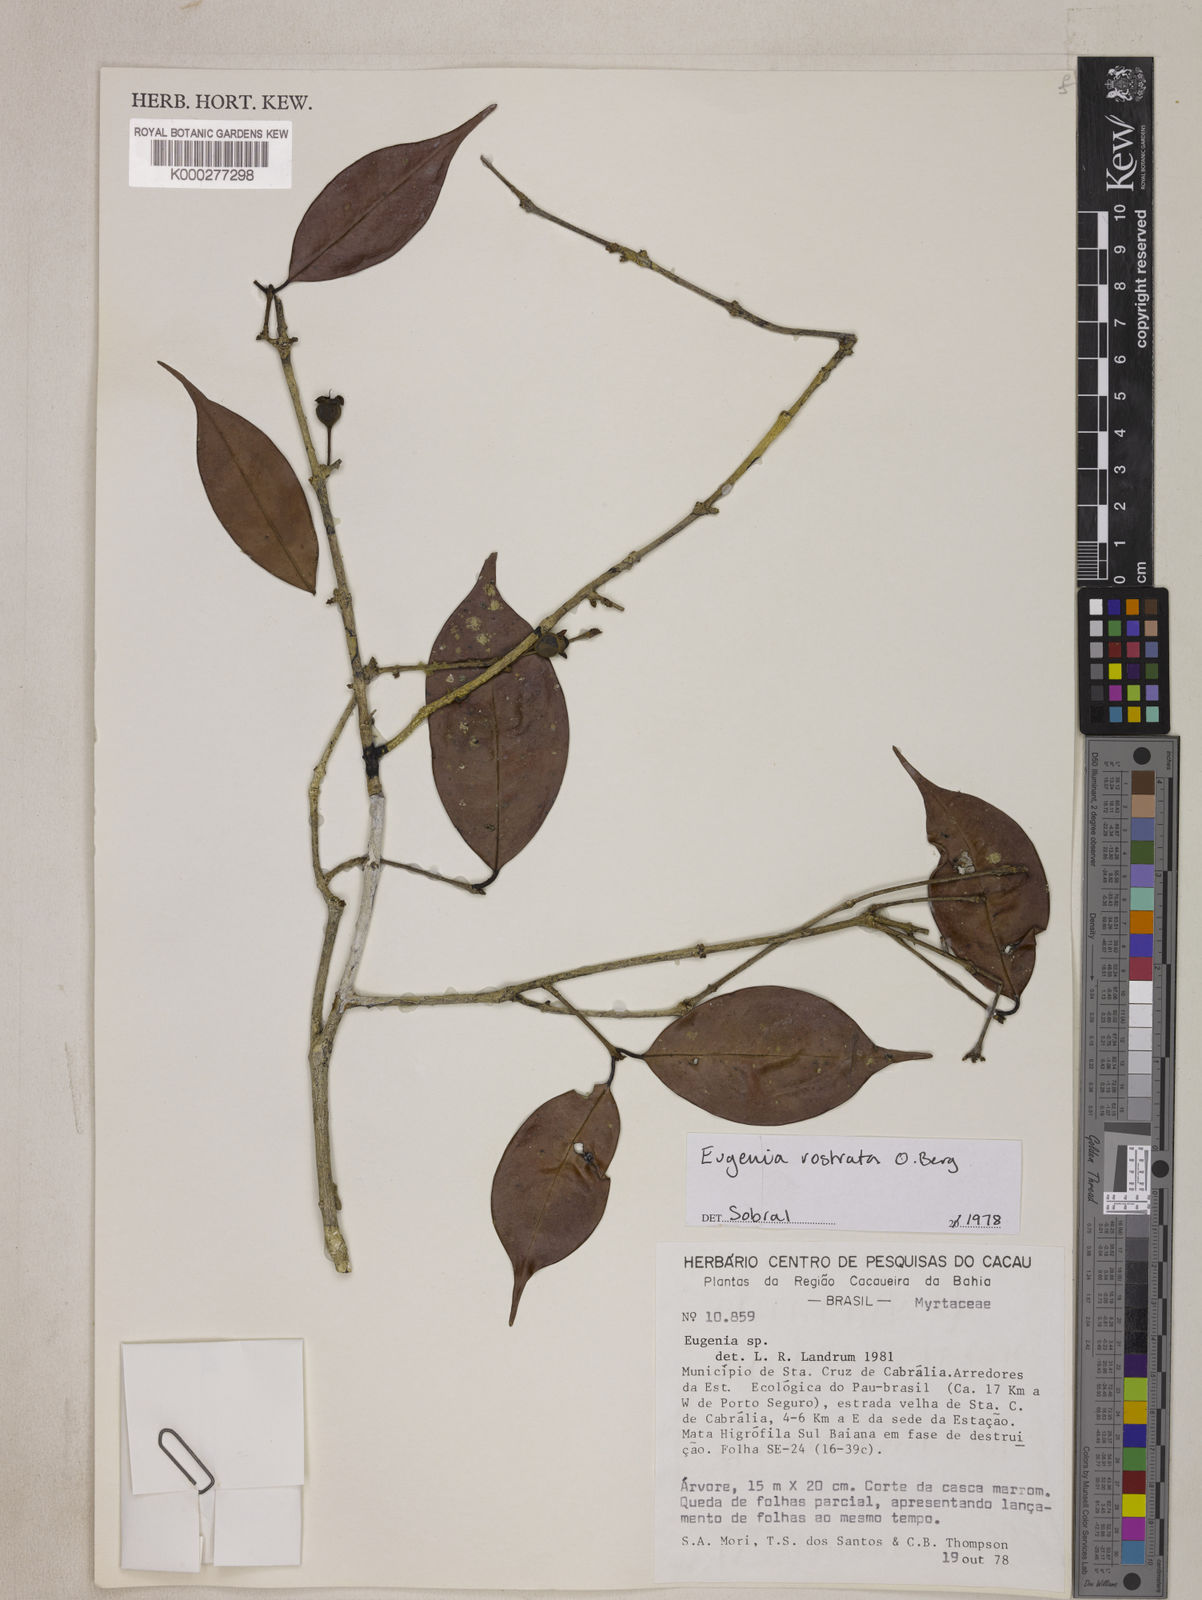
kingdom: Plantae
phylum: Tracheophyta
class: Magnoliopsida
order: Myrtales
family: Myrtaceae
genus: Eugenia
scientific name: Eugenia zuccarinii
